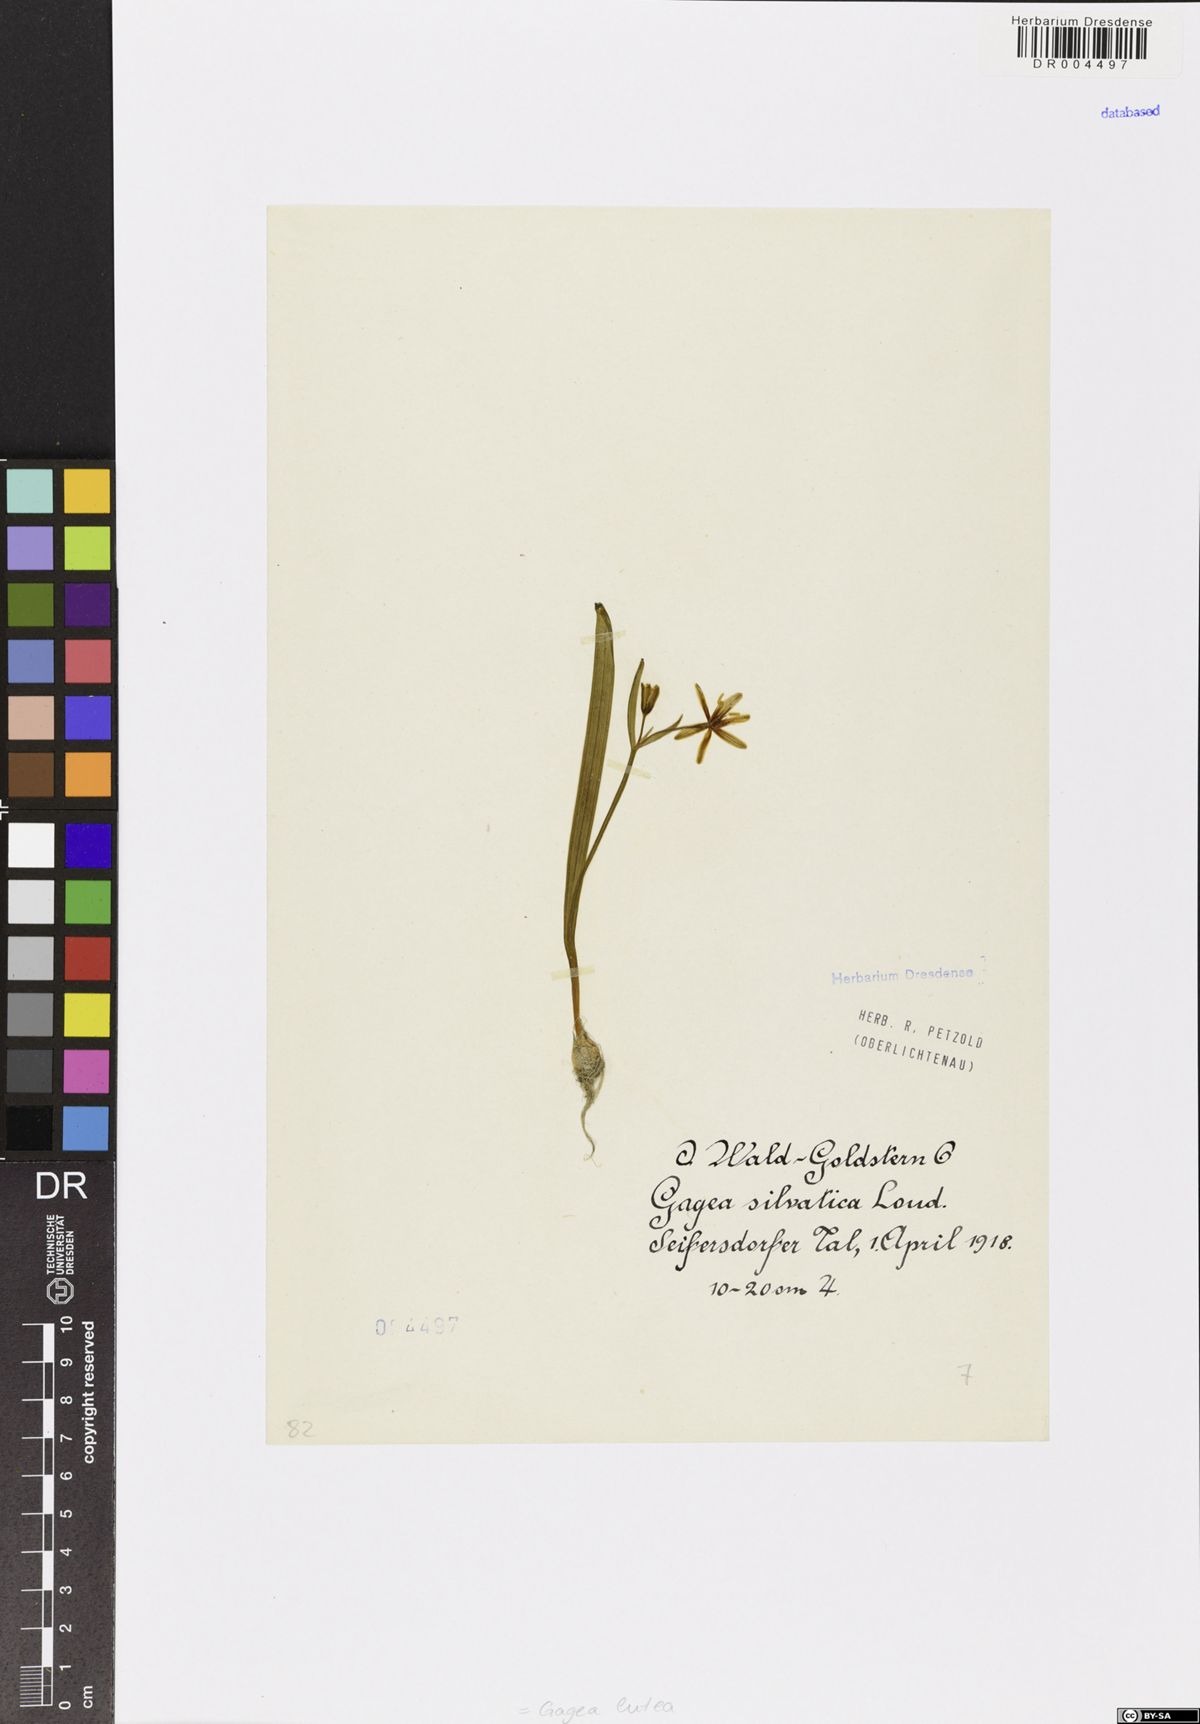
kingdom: Plantae
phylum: Tracheophyta
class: Liliopsida
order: Liliales
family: Liliaceae
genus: Gagea
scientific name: Gagea lutea
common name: Yellow star-of-bethlehem
